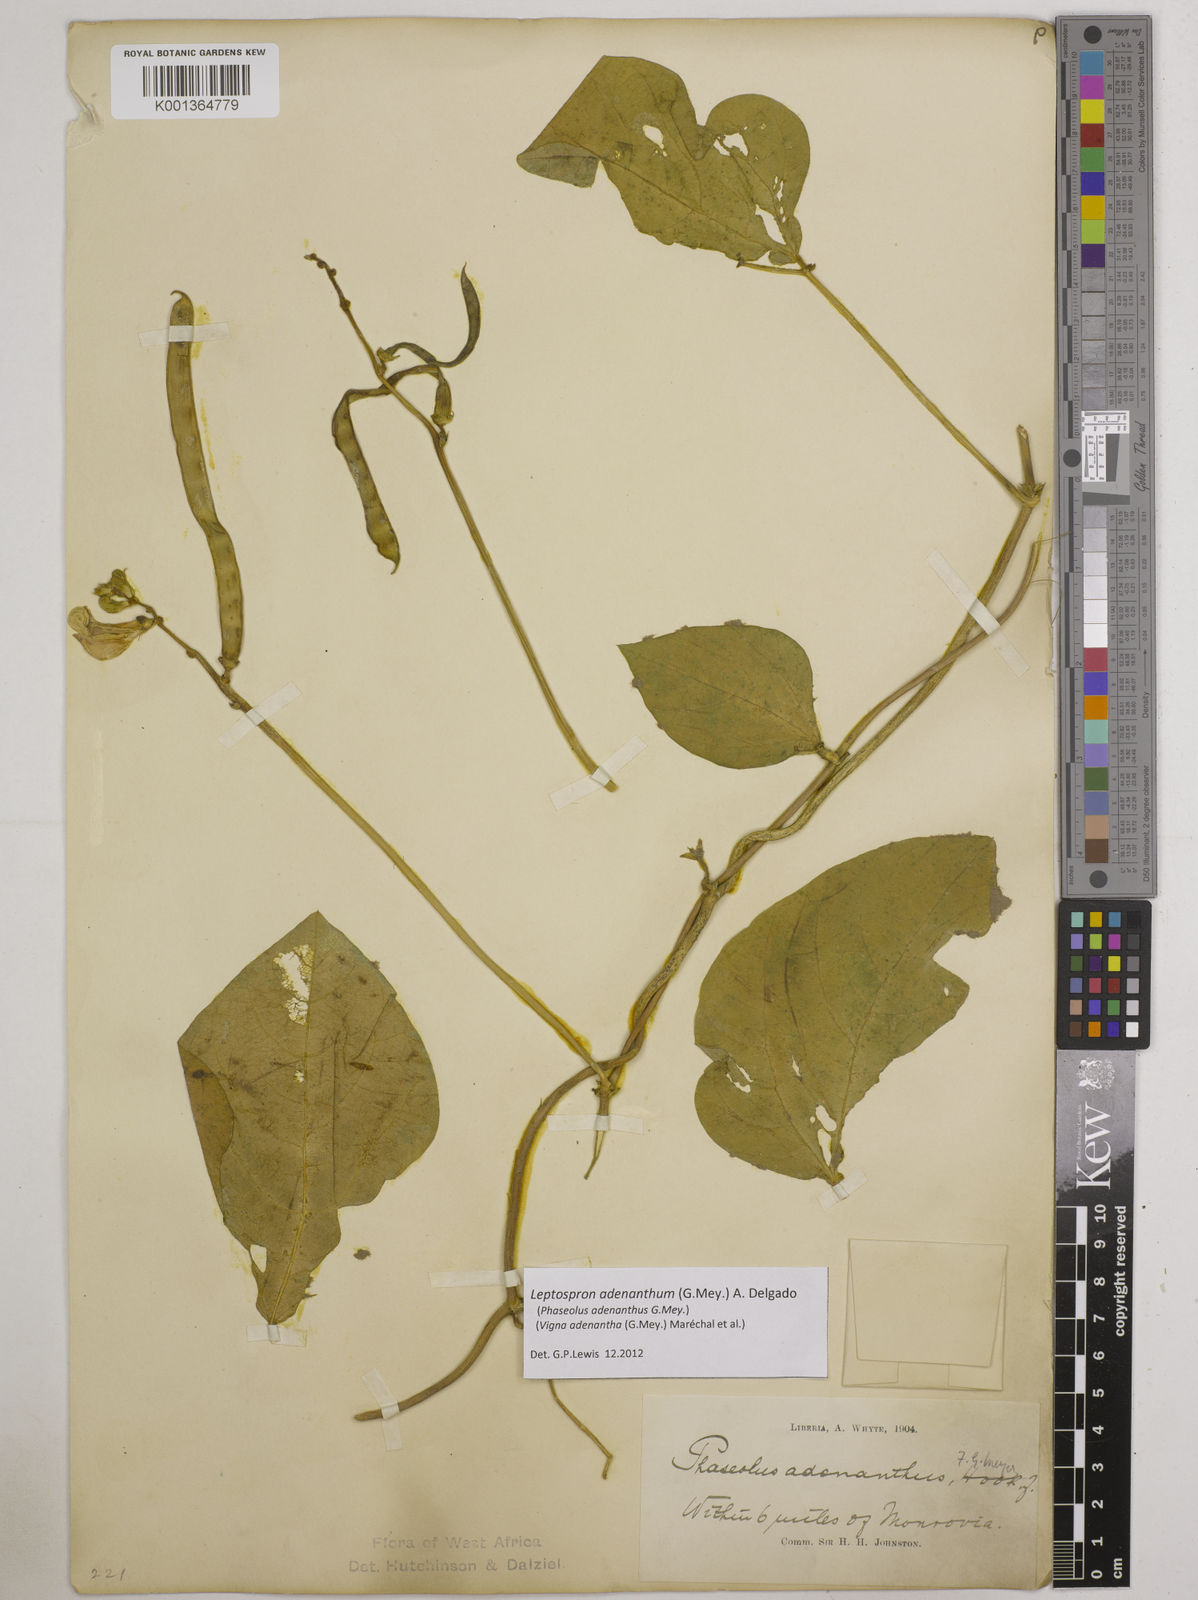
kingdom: Plantae
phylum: Tracheophyta
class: Magnoliopsida
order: Fabales
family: Fabaceae
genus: Leptospron
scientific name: Leptospron adenanthum
